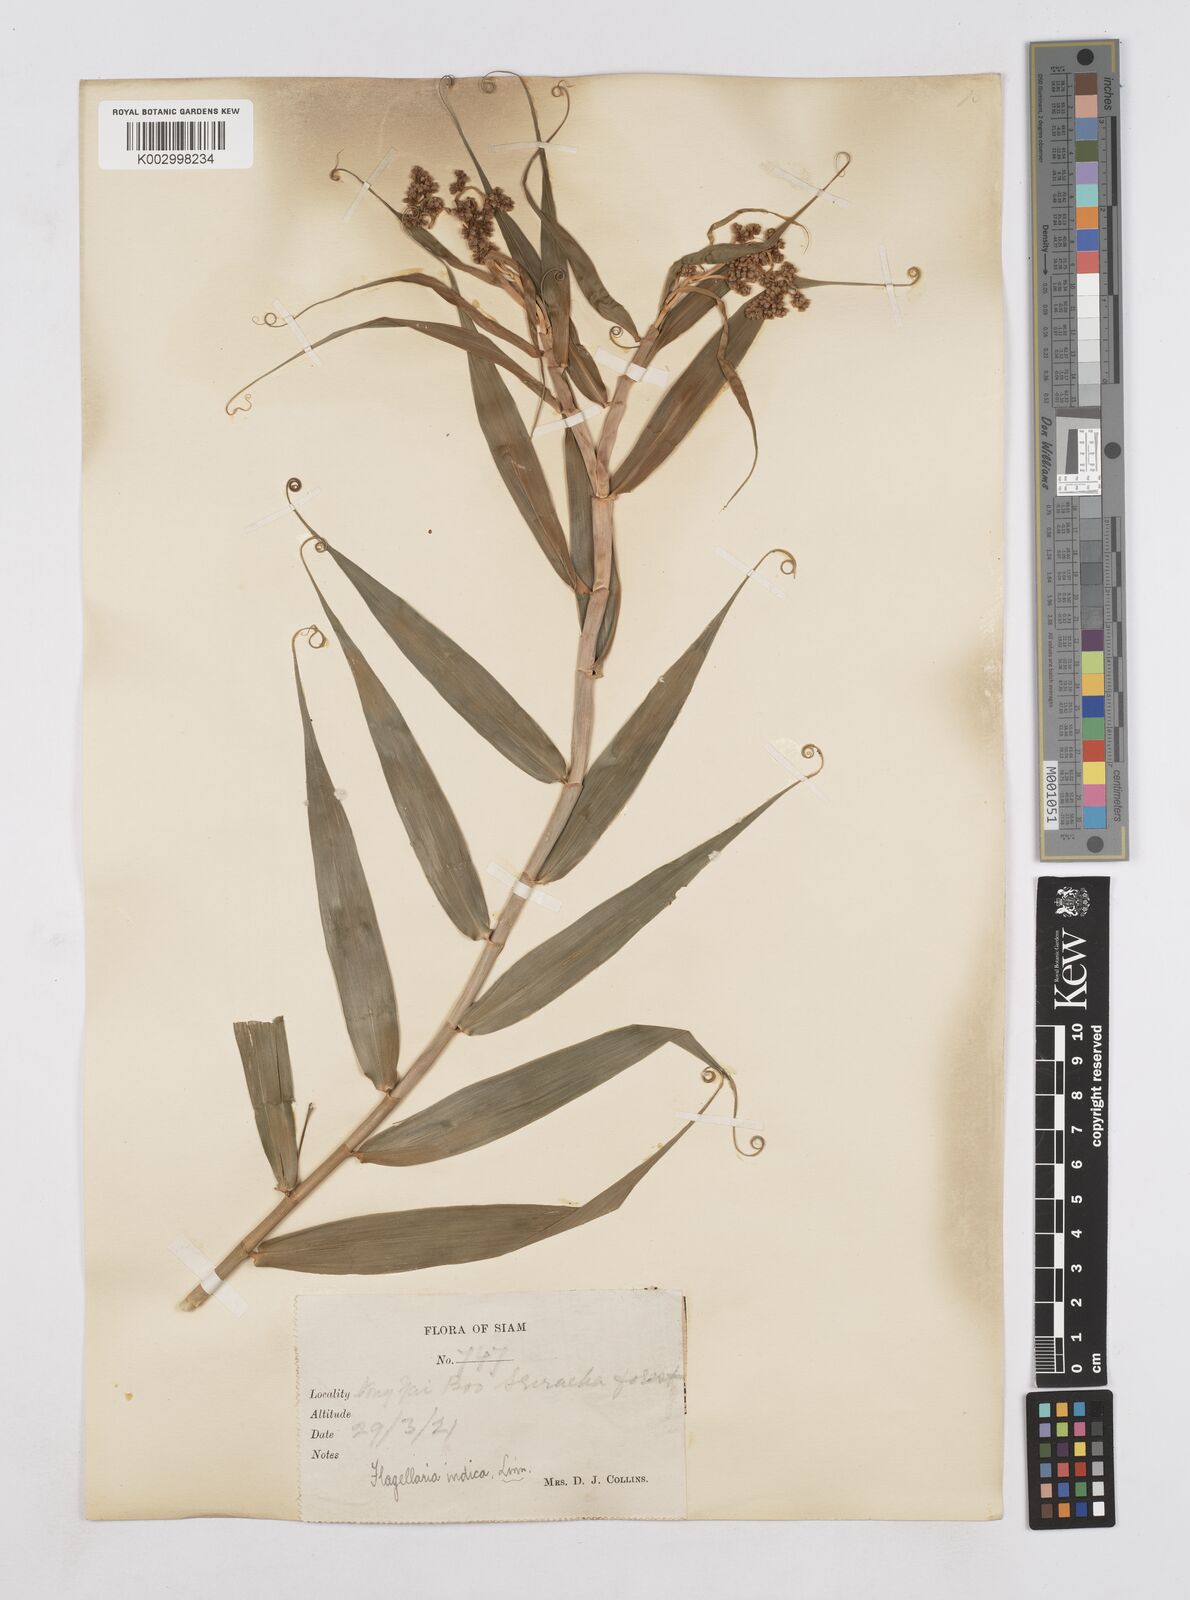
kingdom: Plantae
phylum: Tracheophyta
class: Liliopsida
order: Poales
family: Flagellariaceae
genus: Flagellaria
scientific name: Flagellaria indica
